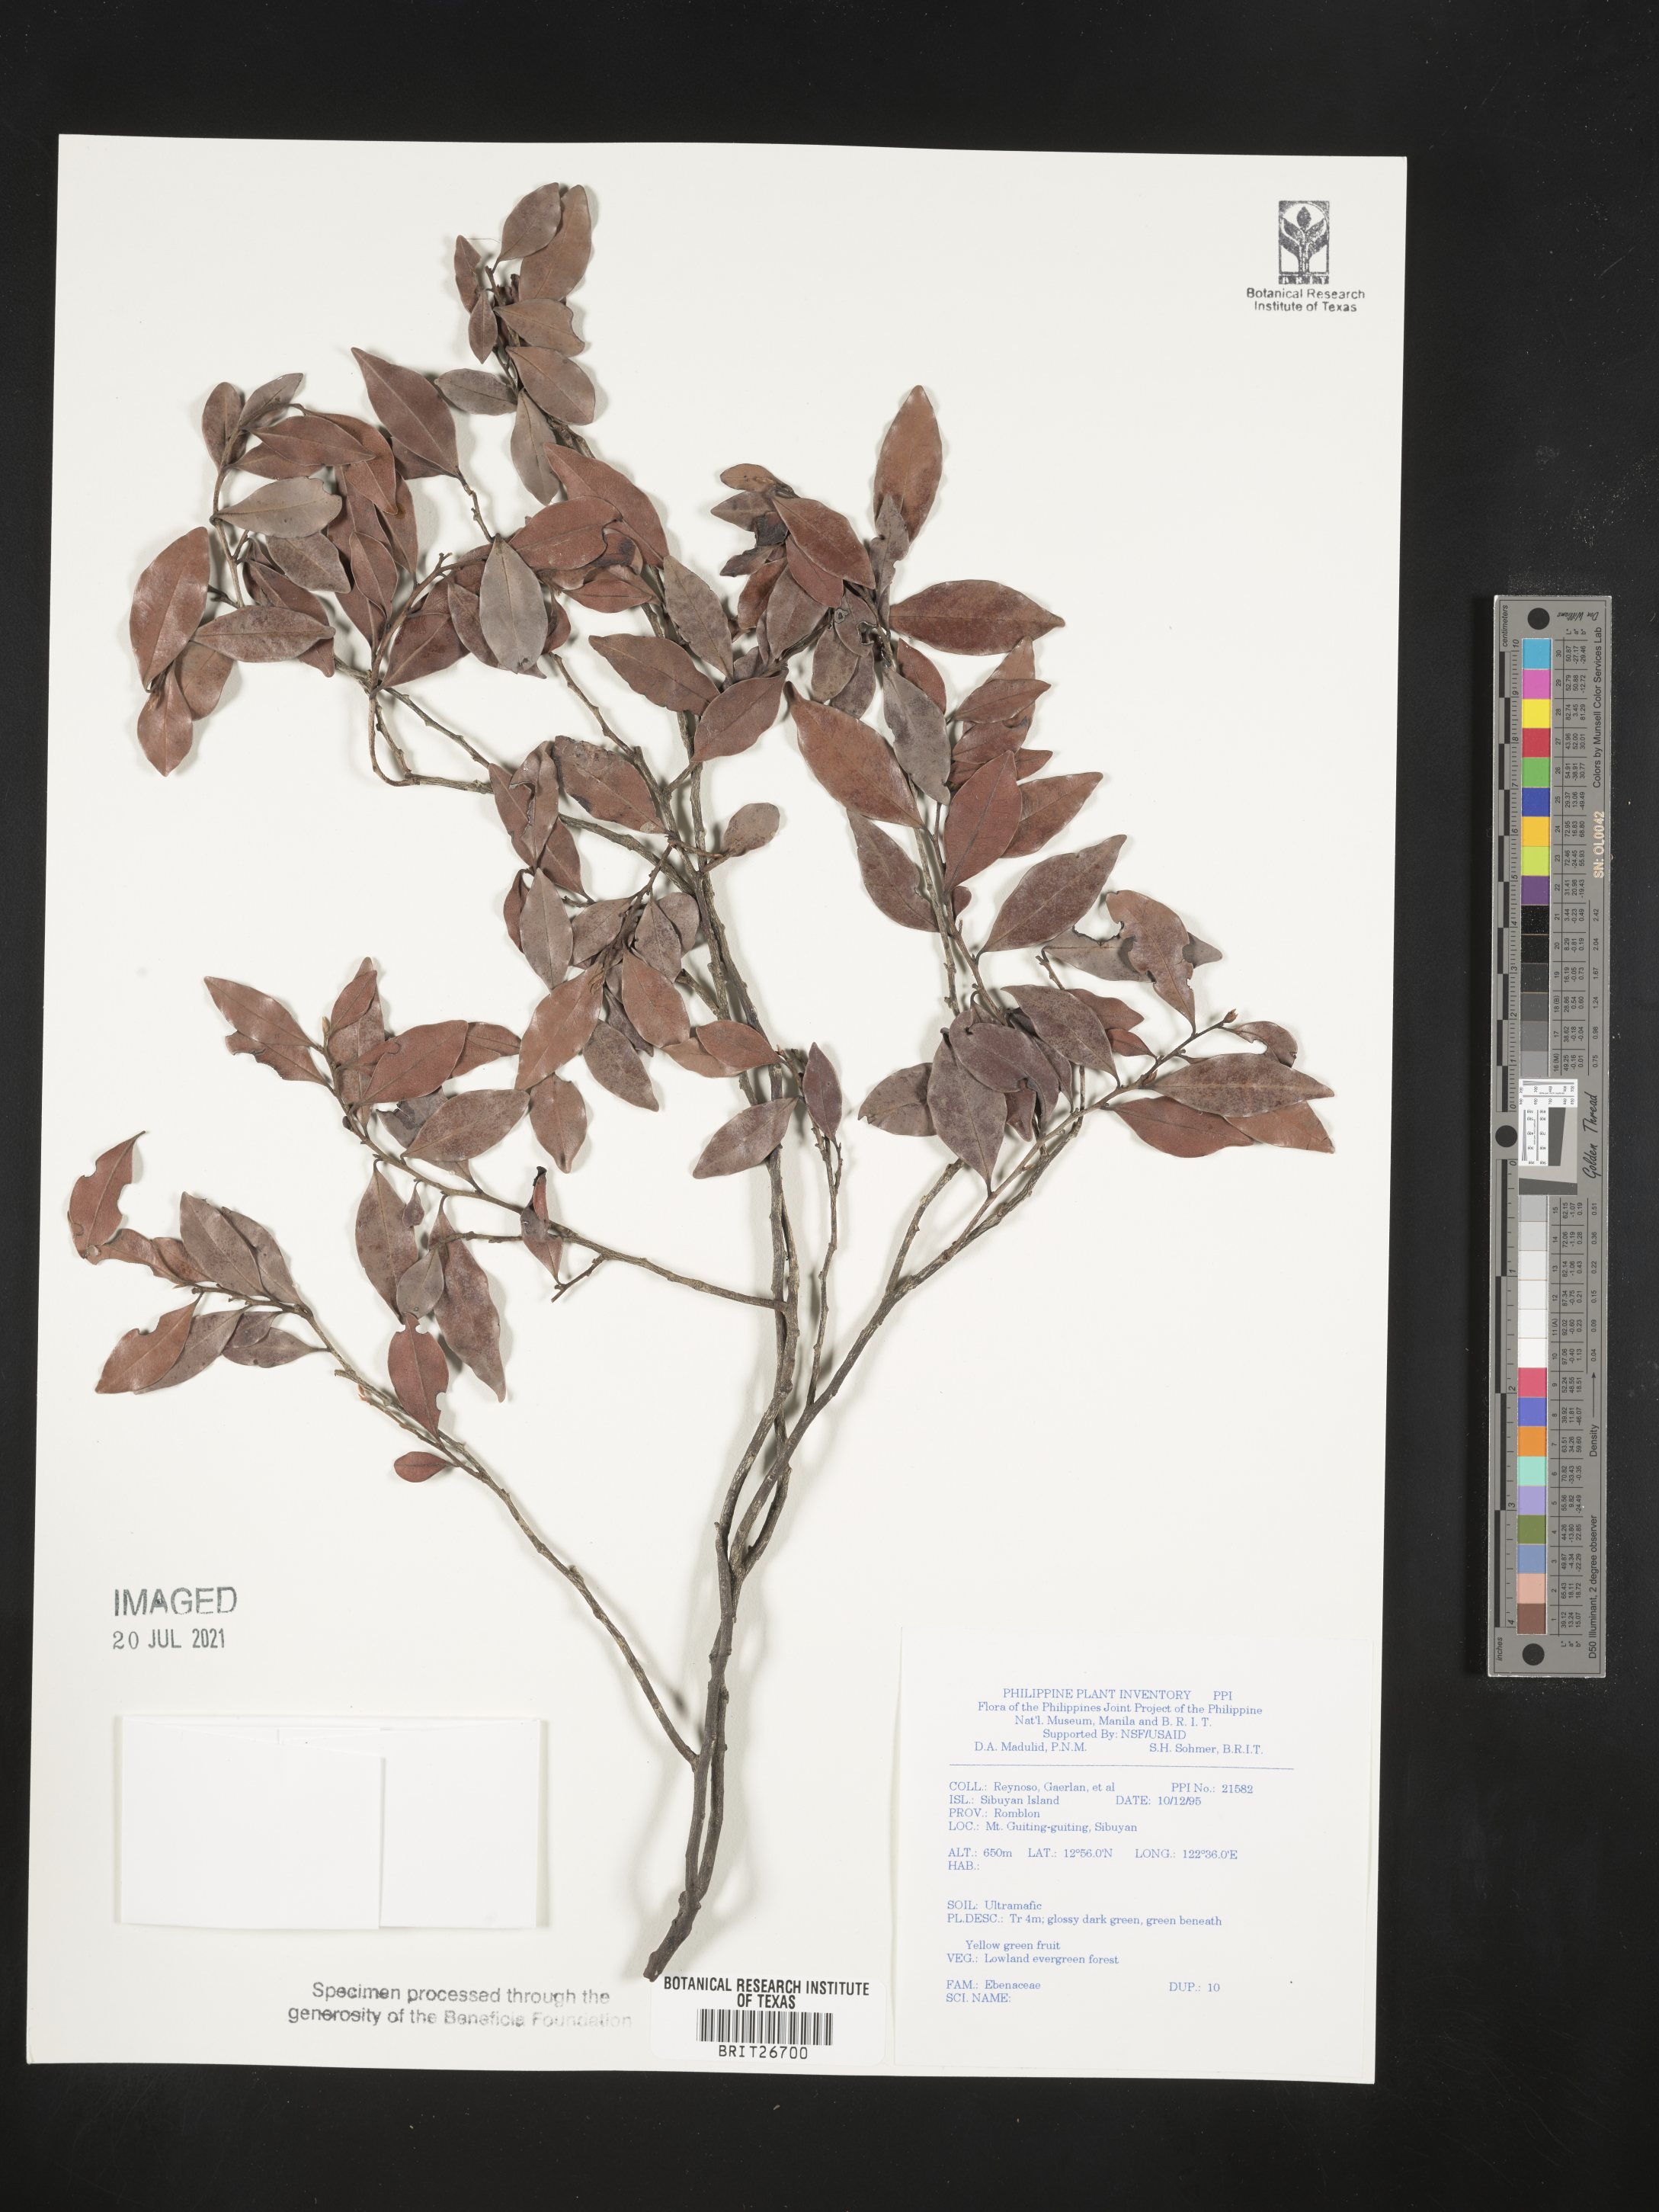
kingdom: Plantae
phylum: Tracheophyta
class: Magnoliopsida
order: Ericales
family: Ebenaceae
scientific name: Ebenaceae
